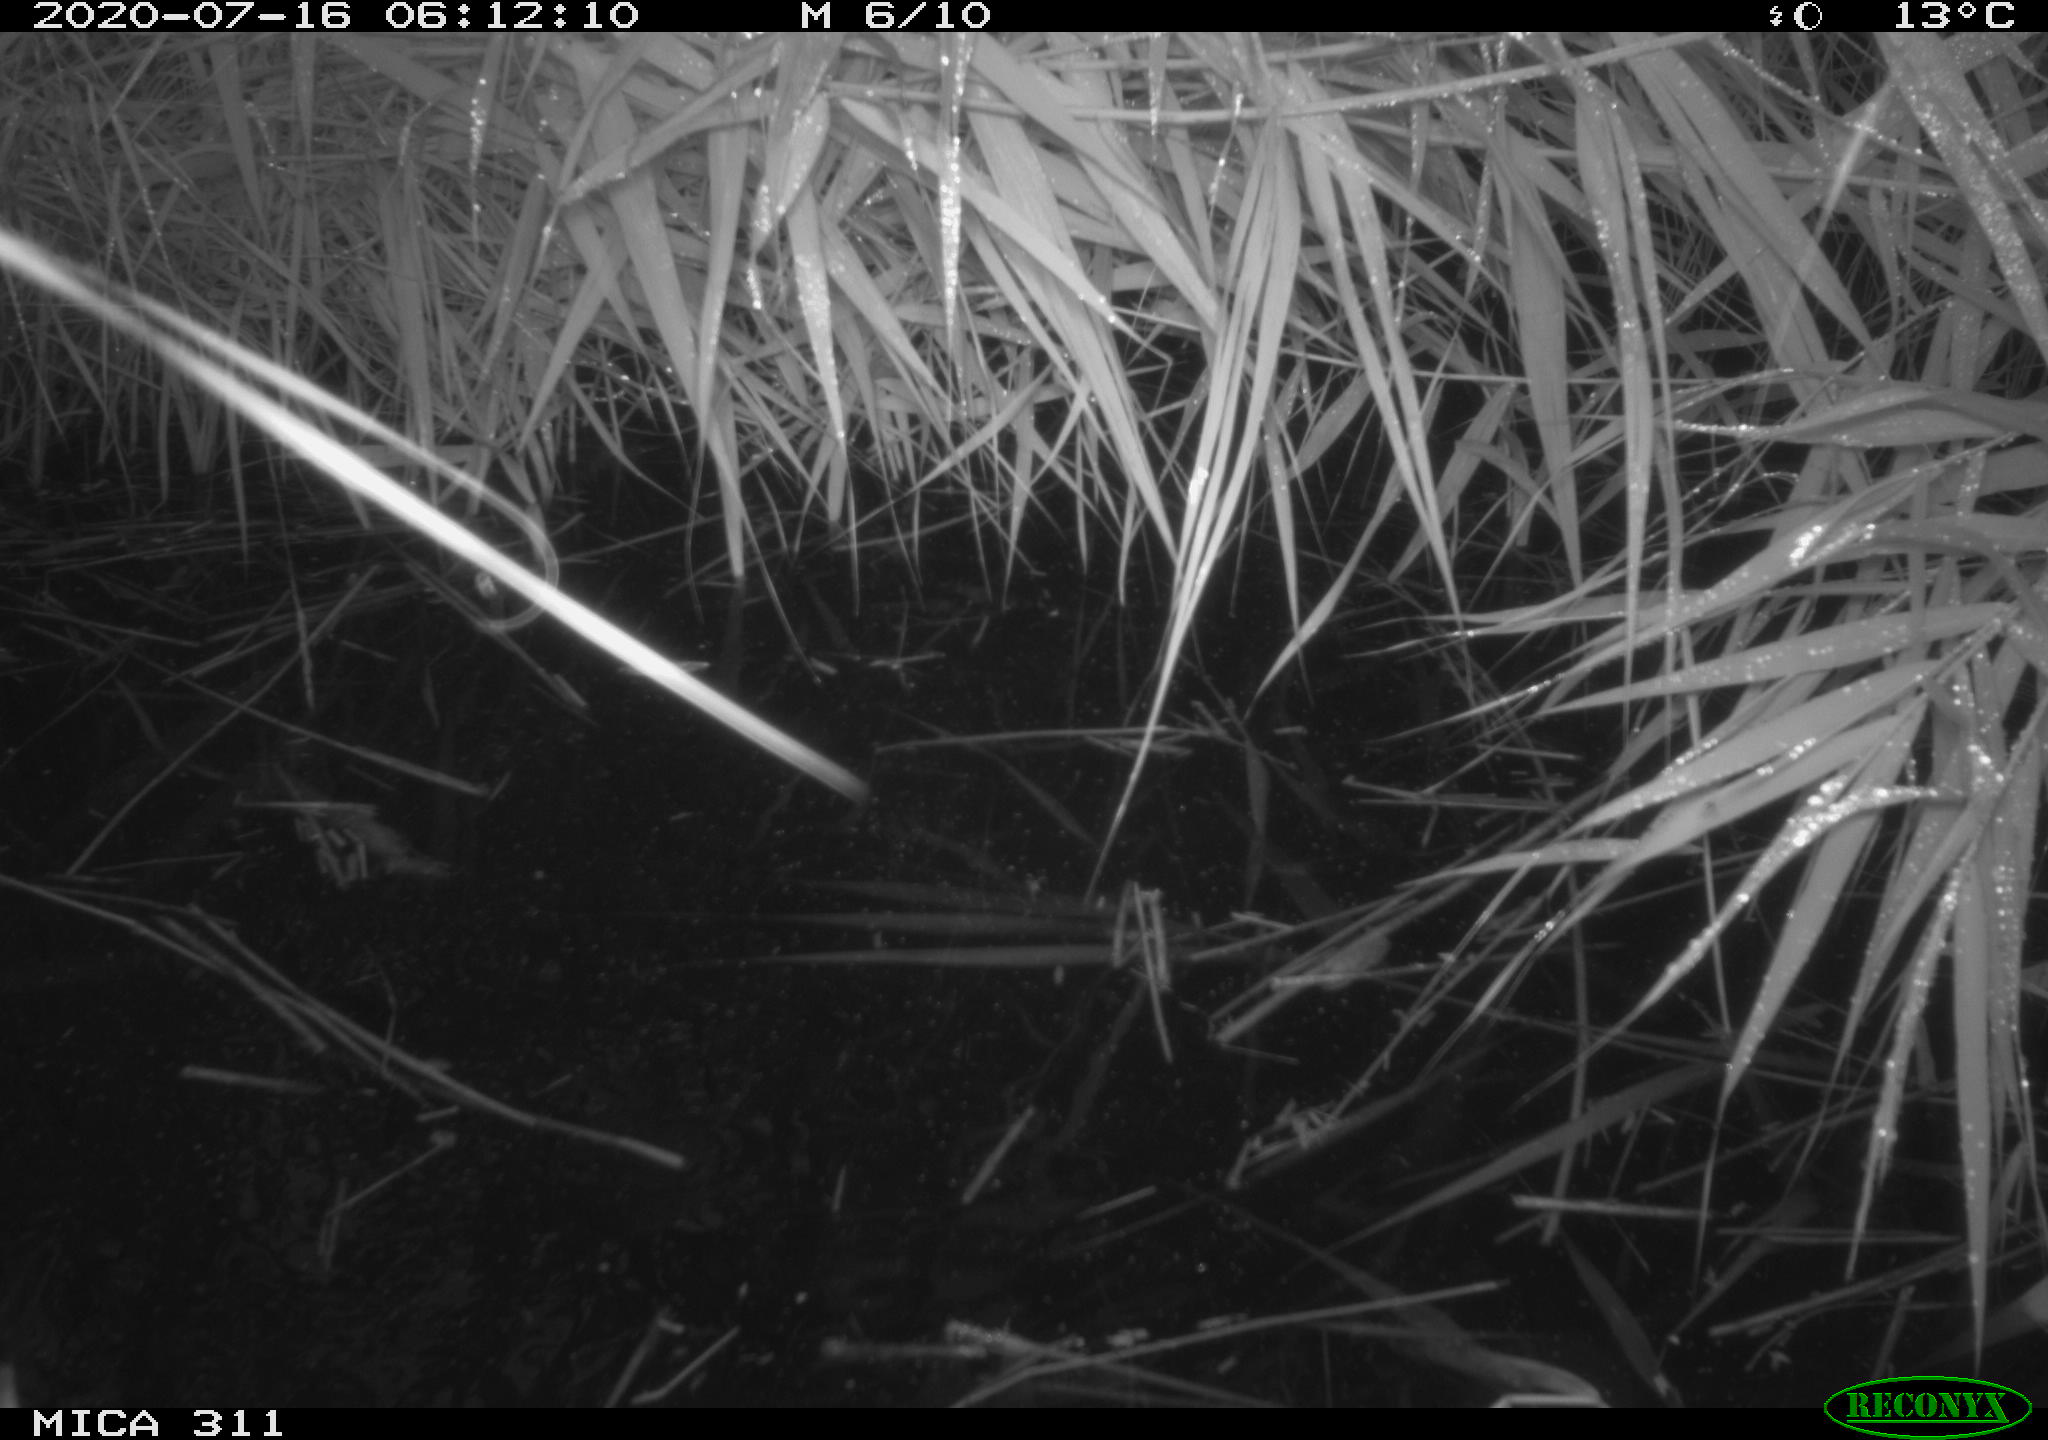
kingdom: Animalia
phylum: Chordata
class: Aves
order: Anseriformes
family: Anatidae
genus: Anas
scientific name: Anas platyrhynchos
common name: Mallard
